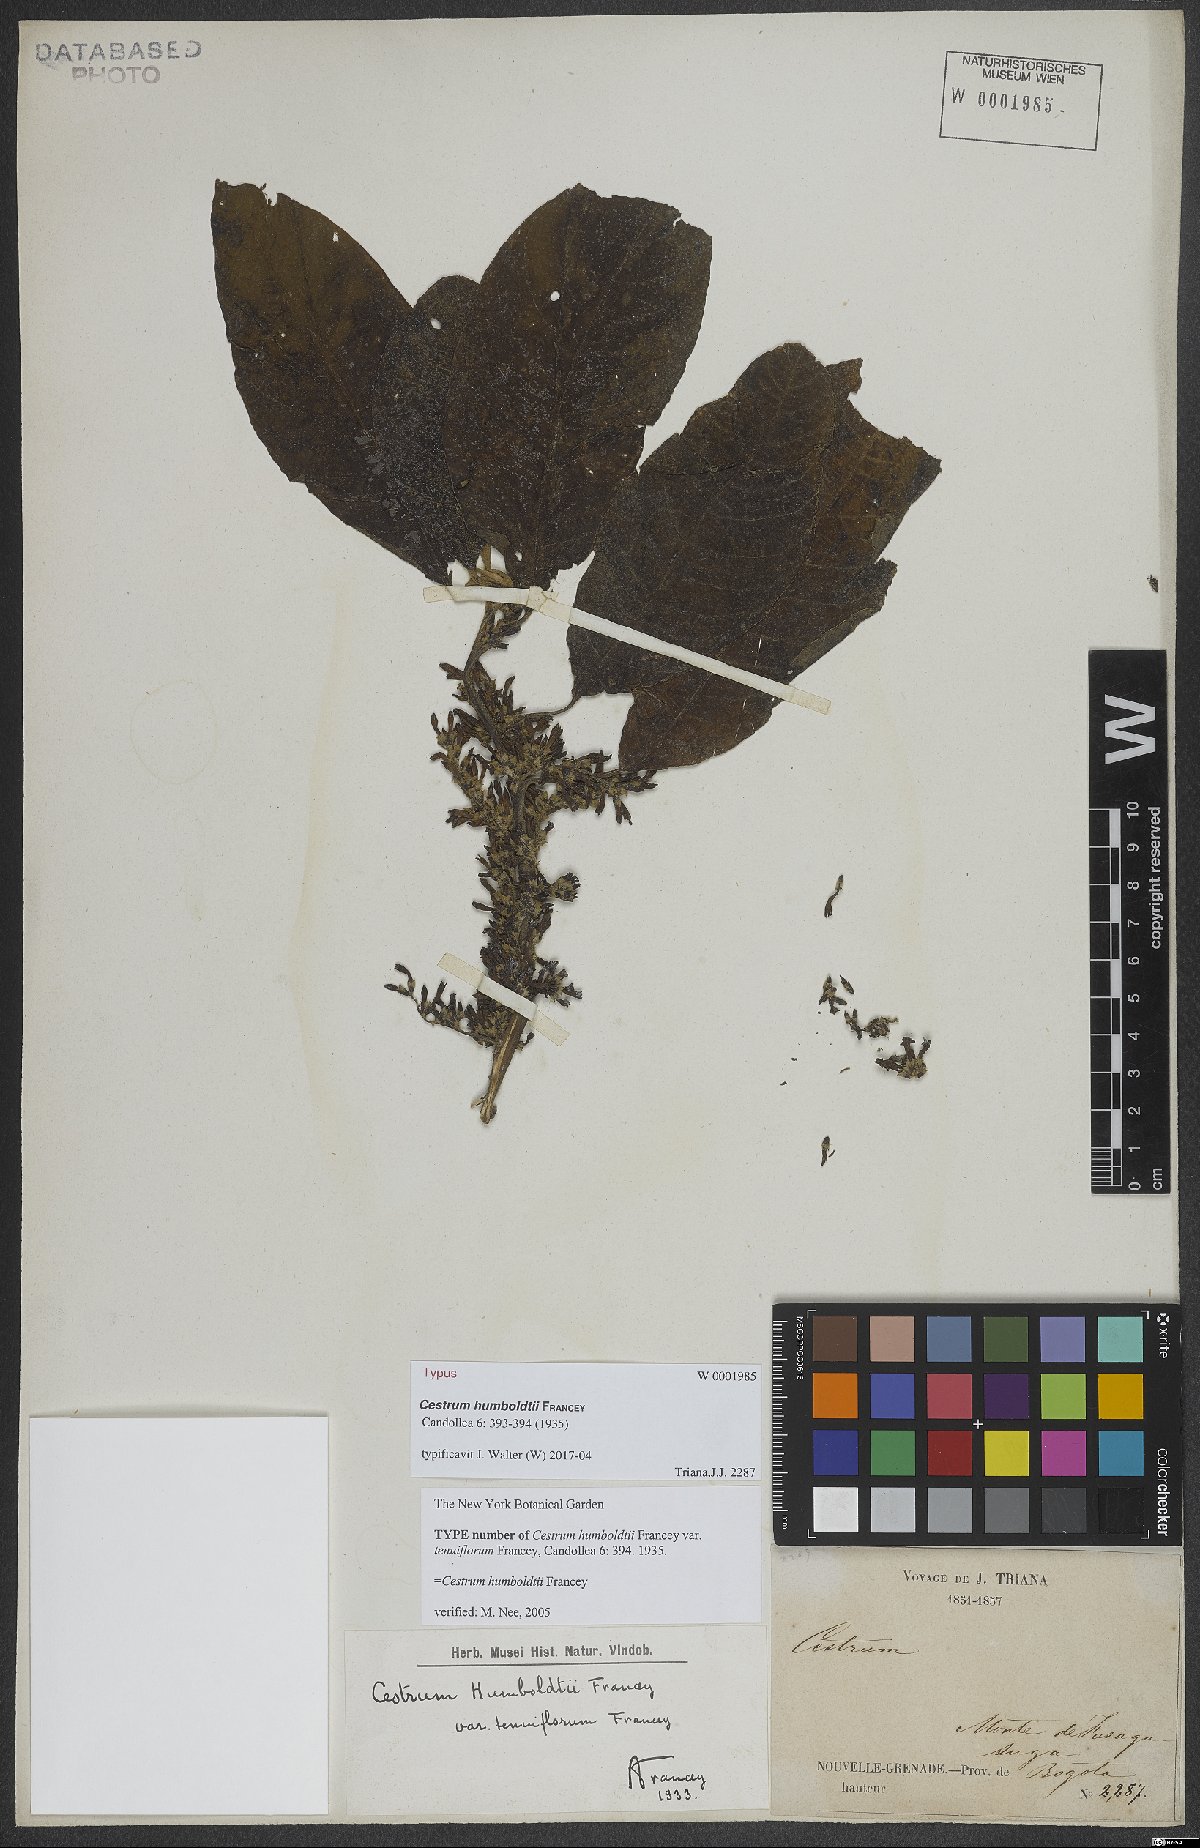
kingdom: Plantae
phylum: Tracheophyta
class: Magnoliopsida
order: Solanales
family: Solanaceae
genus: Cestrum
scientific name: Cestrum humboldtii
